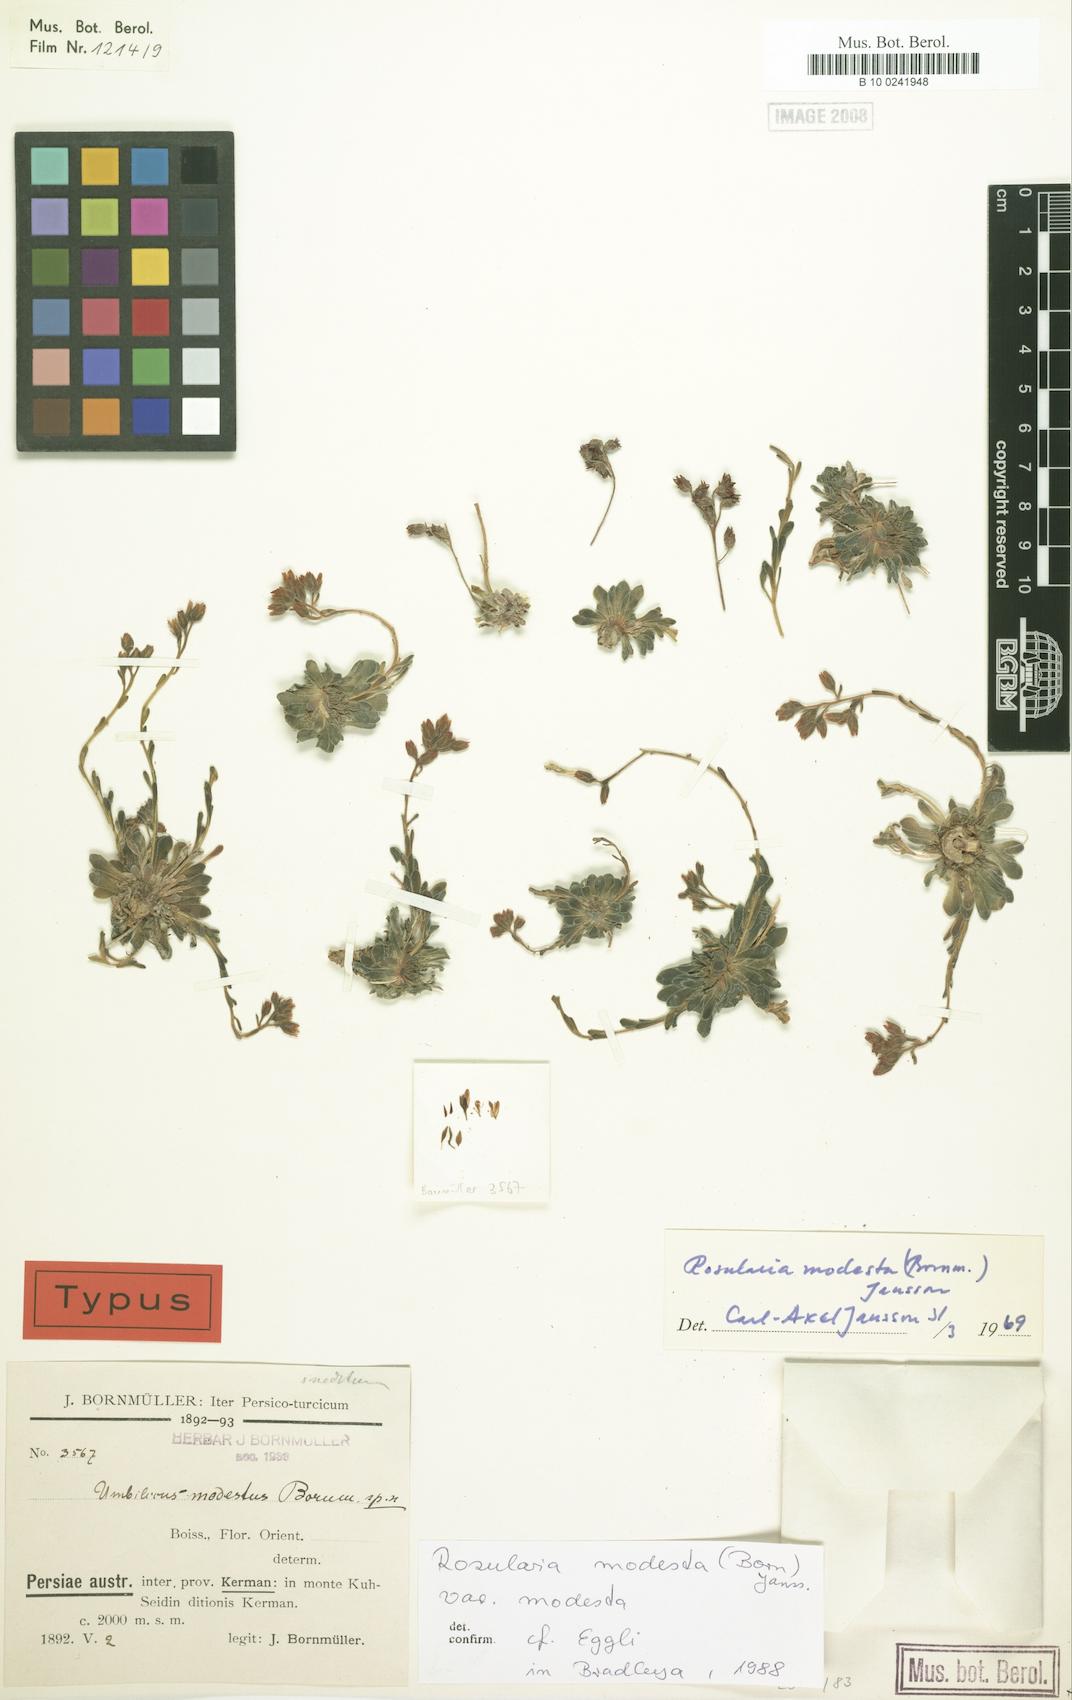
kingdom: Plantae
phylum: Tracheophyta
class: Magnoliopsida
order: Saxifragales
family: Crassulaceae
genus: Rosularia
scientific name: Rosularia modesta
